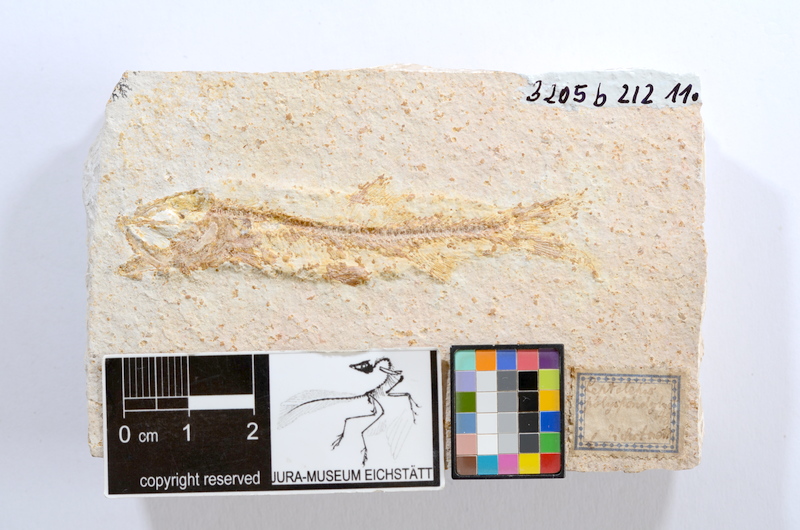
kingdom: Animalia
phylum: Chordata
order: Elopiformes
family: Anaethalionidae
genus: Anaethalion
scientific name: Anaethalion
